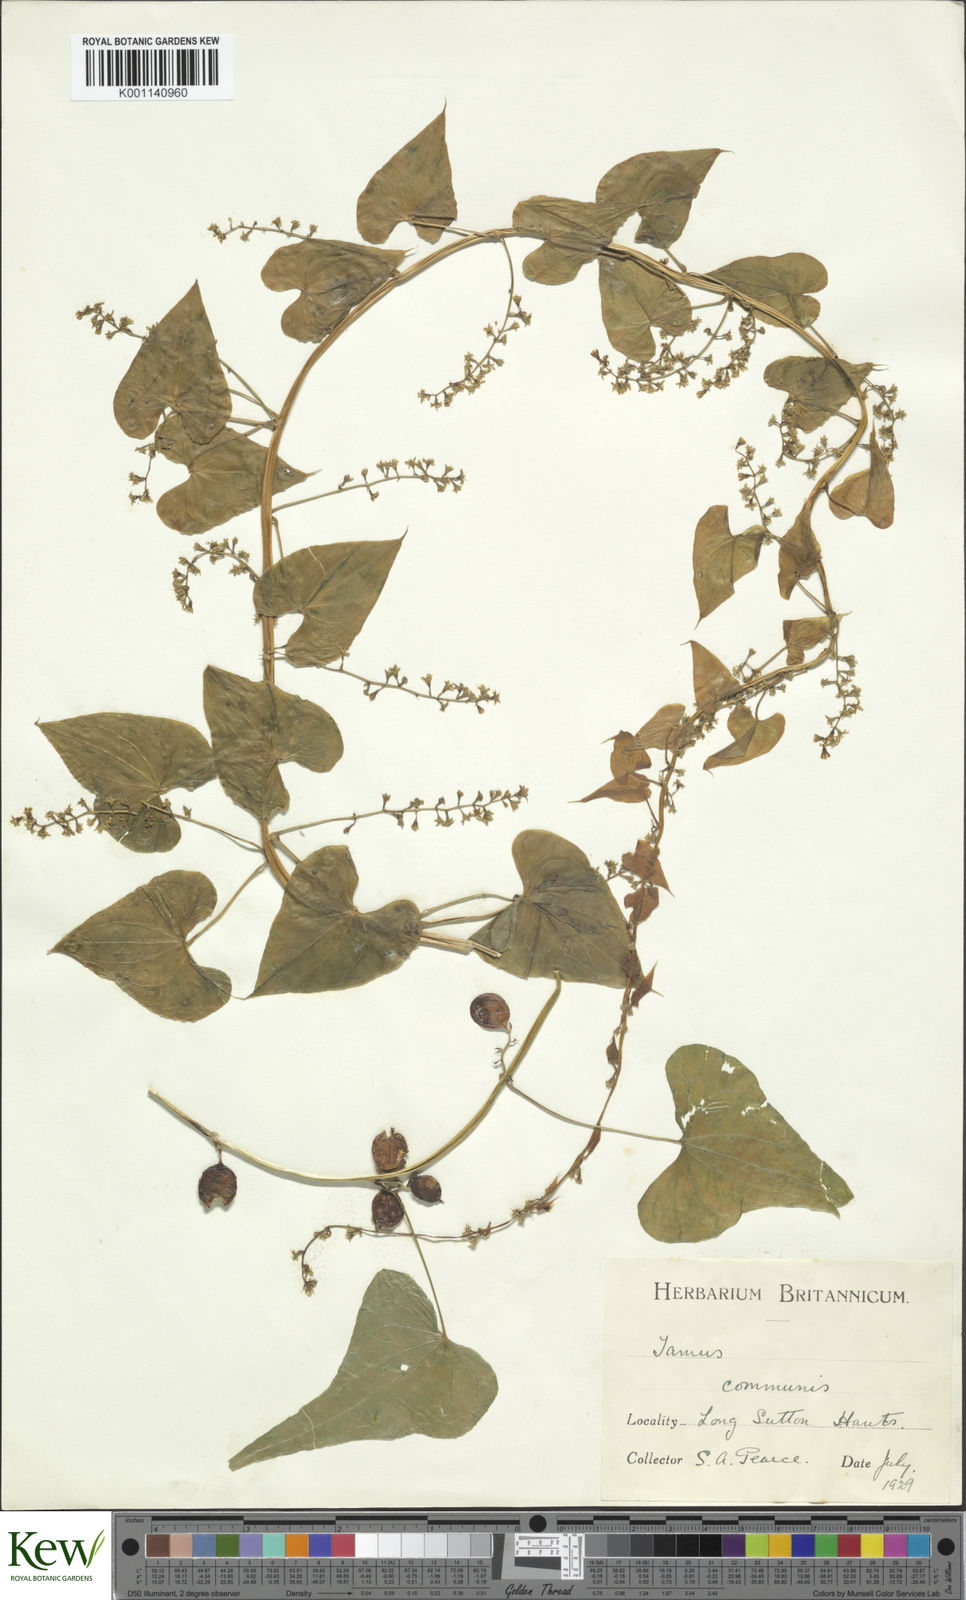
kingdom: Plantae
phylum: Tracheophyta
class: Liliopsida
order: Dioscoreales
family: Dioscoreaceae
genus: Dioscorea
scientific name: Dioscorea communis
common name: Black-bindweed
